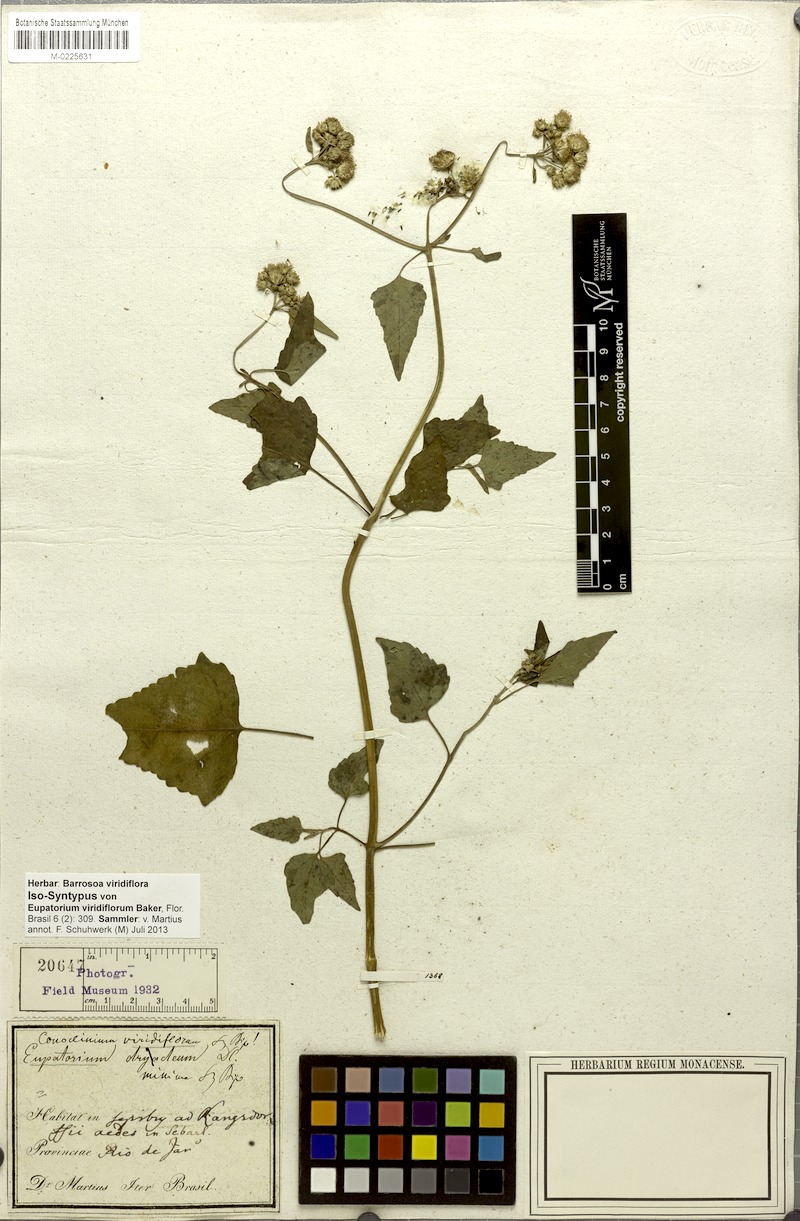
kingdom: Plantae
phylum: Tracheophyta
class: Magnoliopsida
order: Asterales
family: Asteraceae
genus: Bartlettina
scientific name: Bartlettina conspicua
